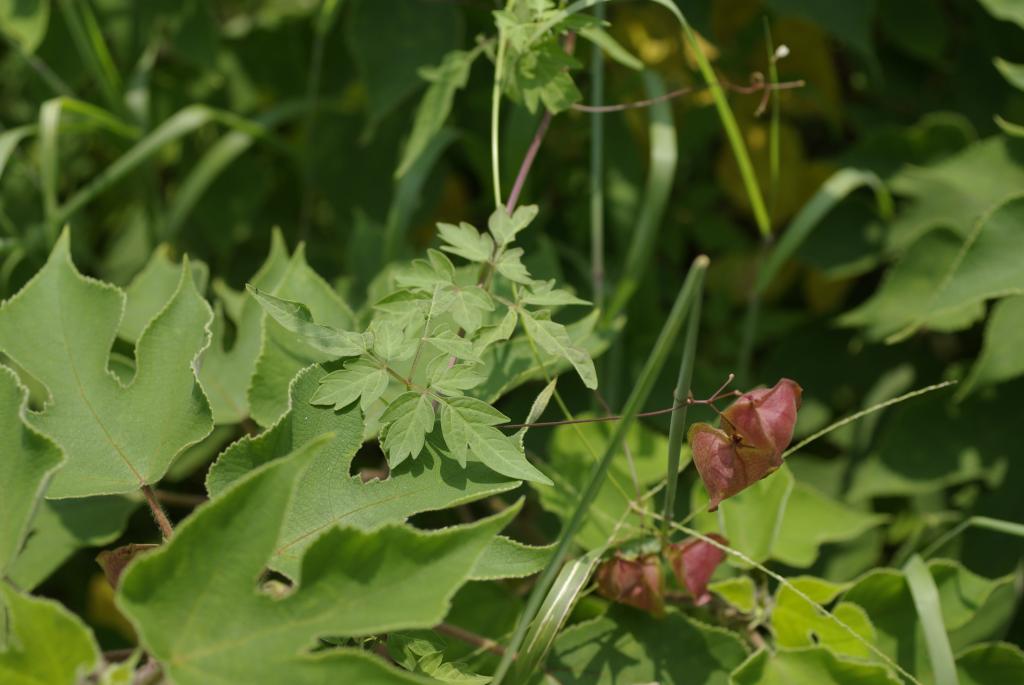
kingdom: Plantae
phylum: Tracheophyta
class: Magnoliopsida
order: Sapindales
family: Sapindaceae
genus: Cardiospermum
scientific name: Cardiospermum halicacabum
